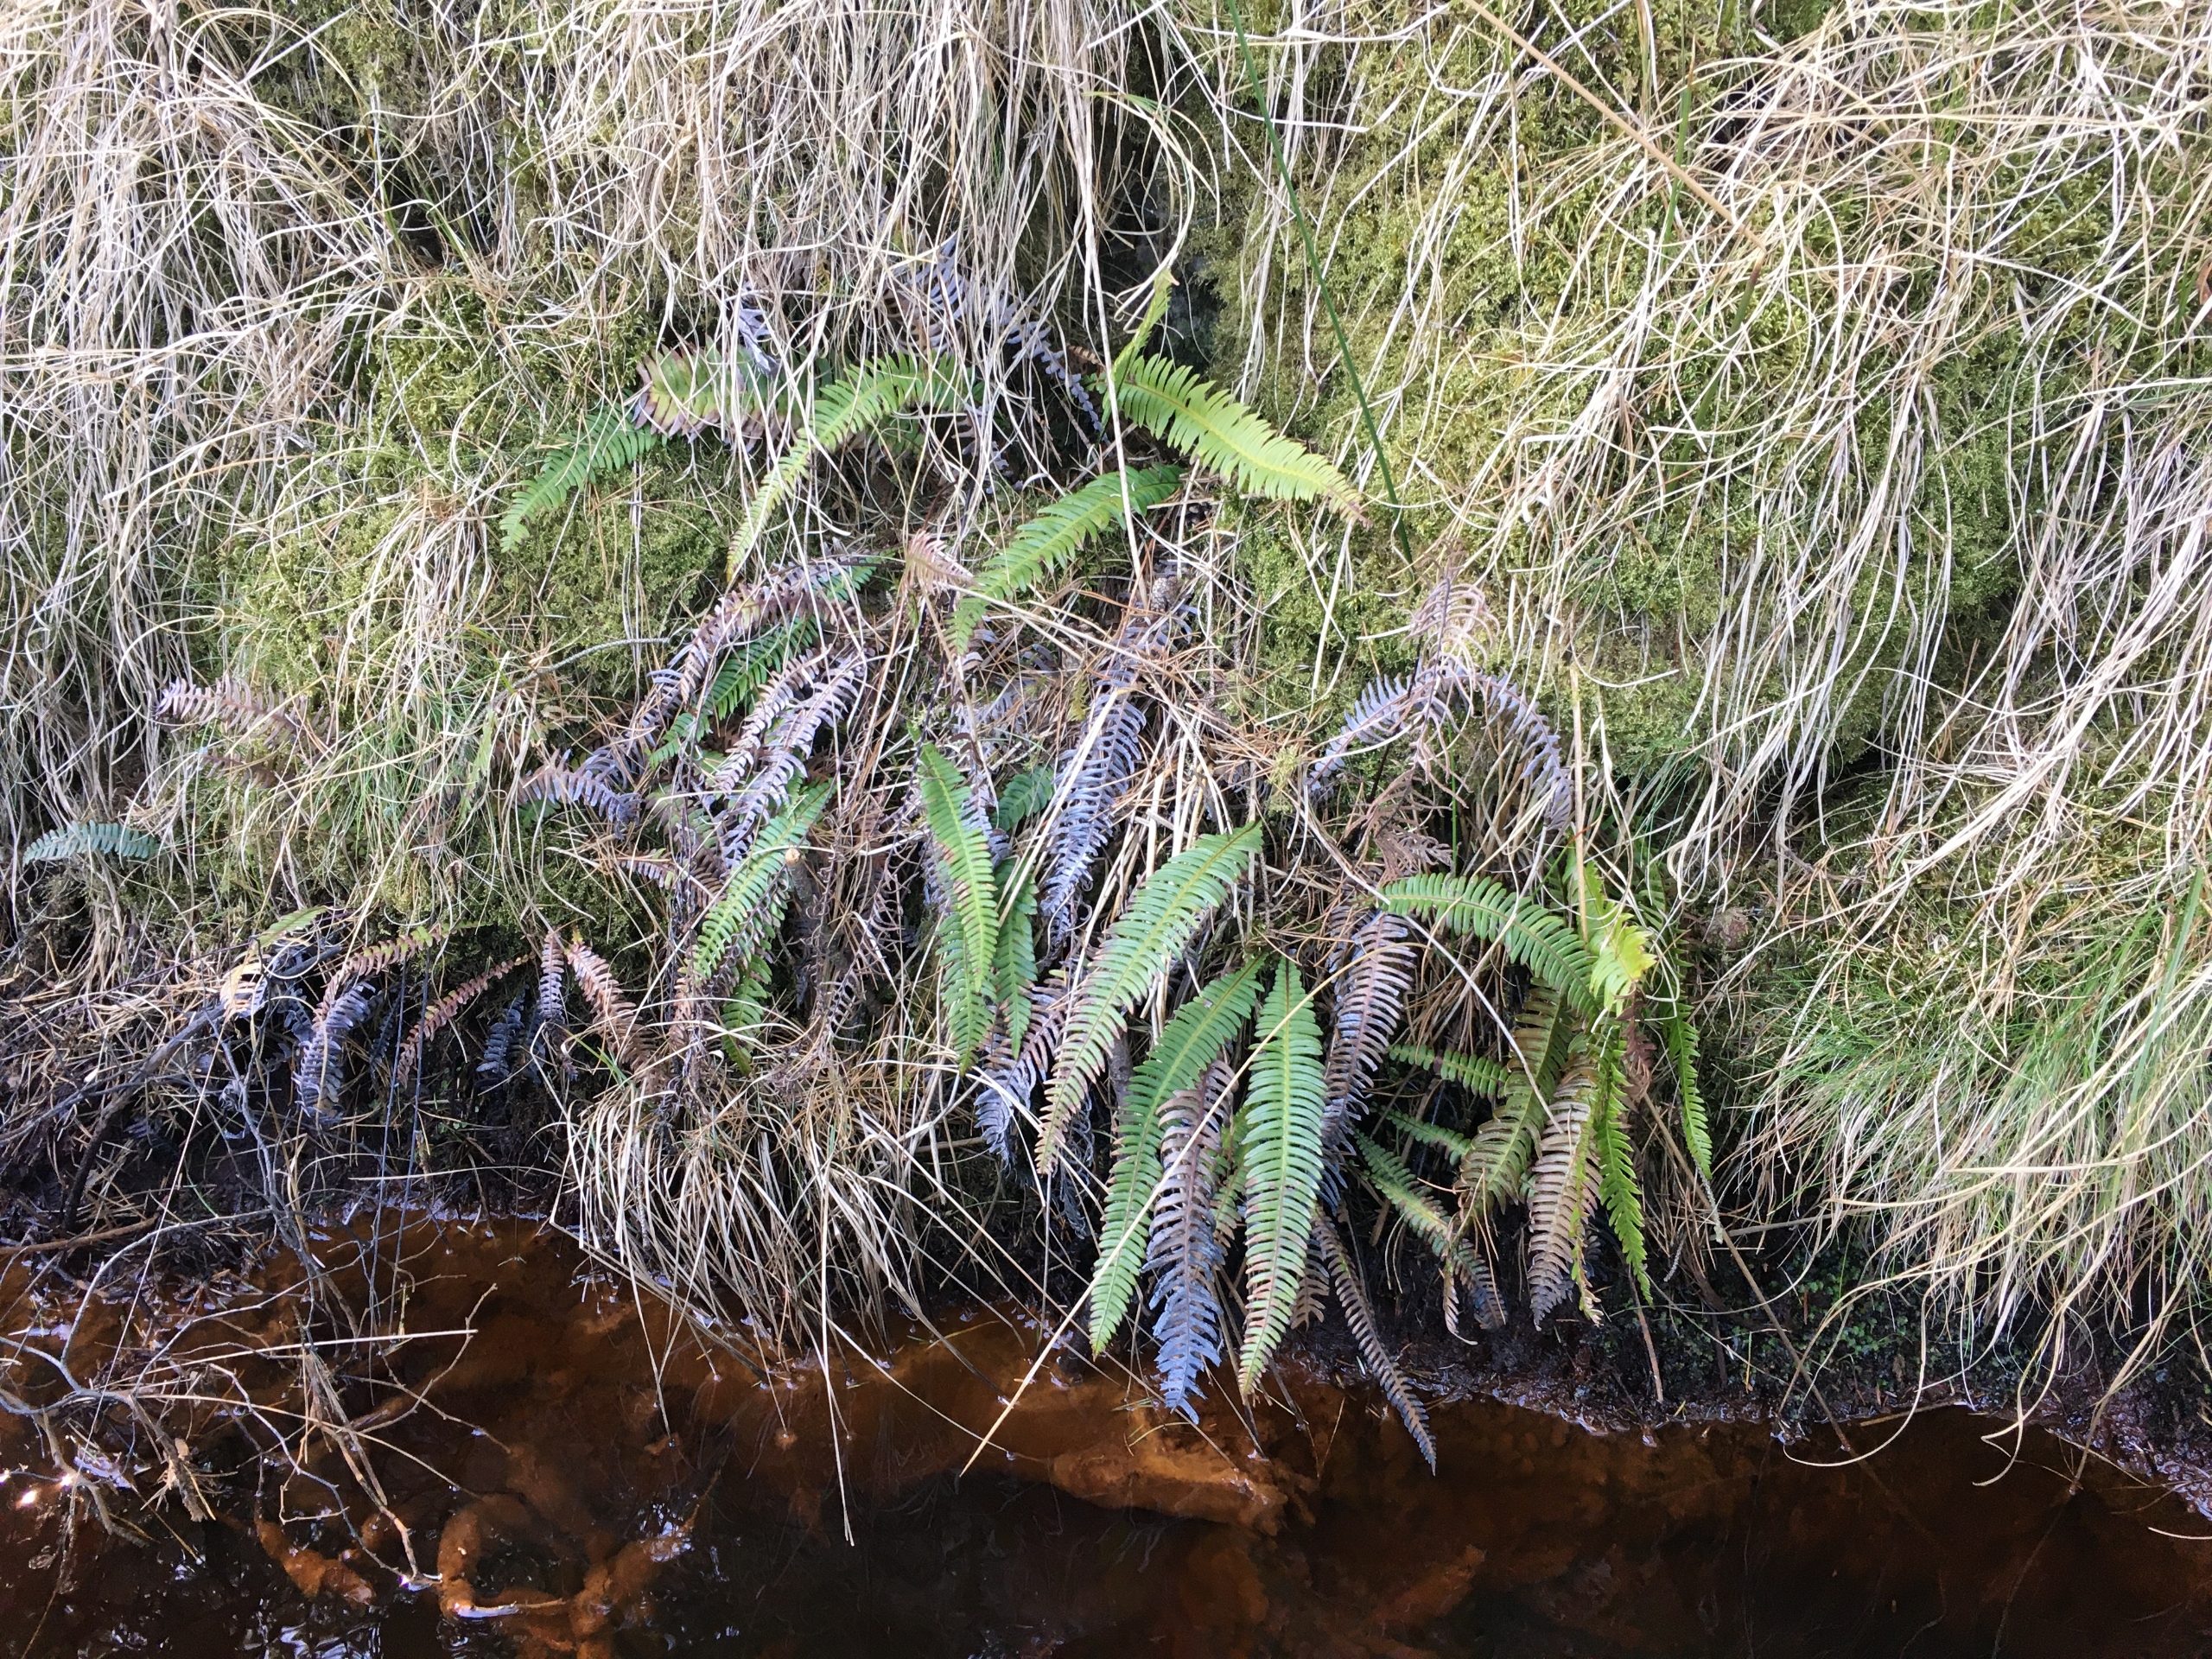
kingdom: Plantae
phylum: Tracheophyta
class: Polypodiopsida
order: Polypodiales
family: Blechnaceae
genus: Struthiopteris
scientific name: Struthiopteris spicant
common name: Kambregne
